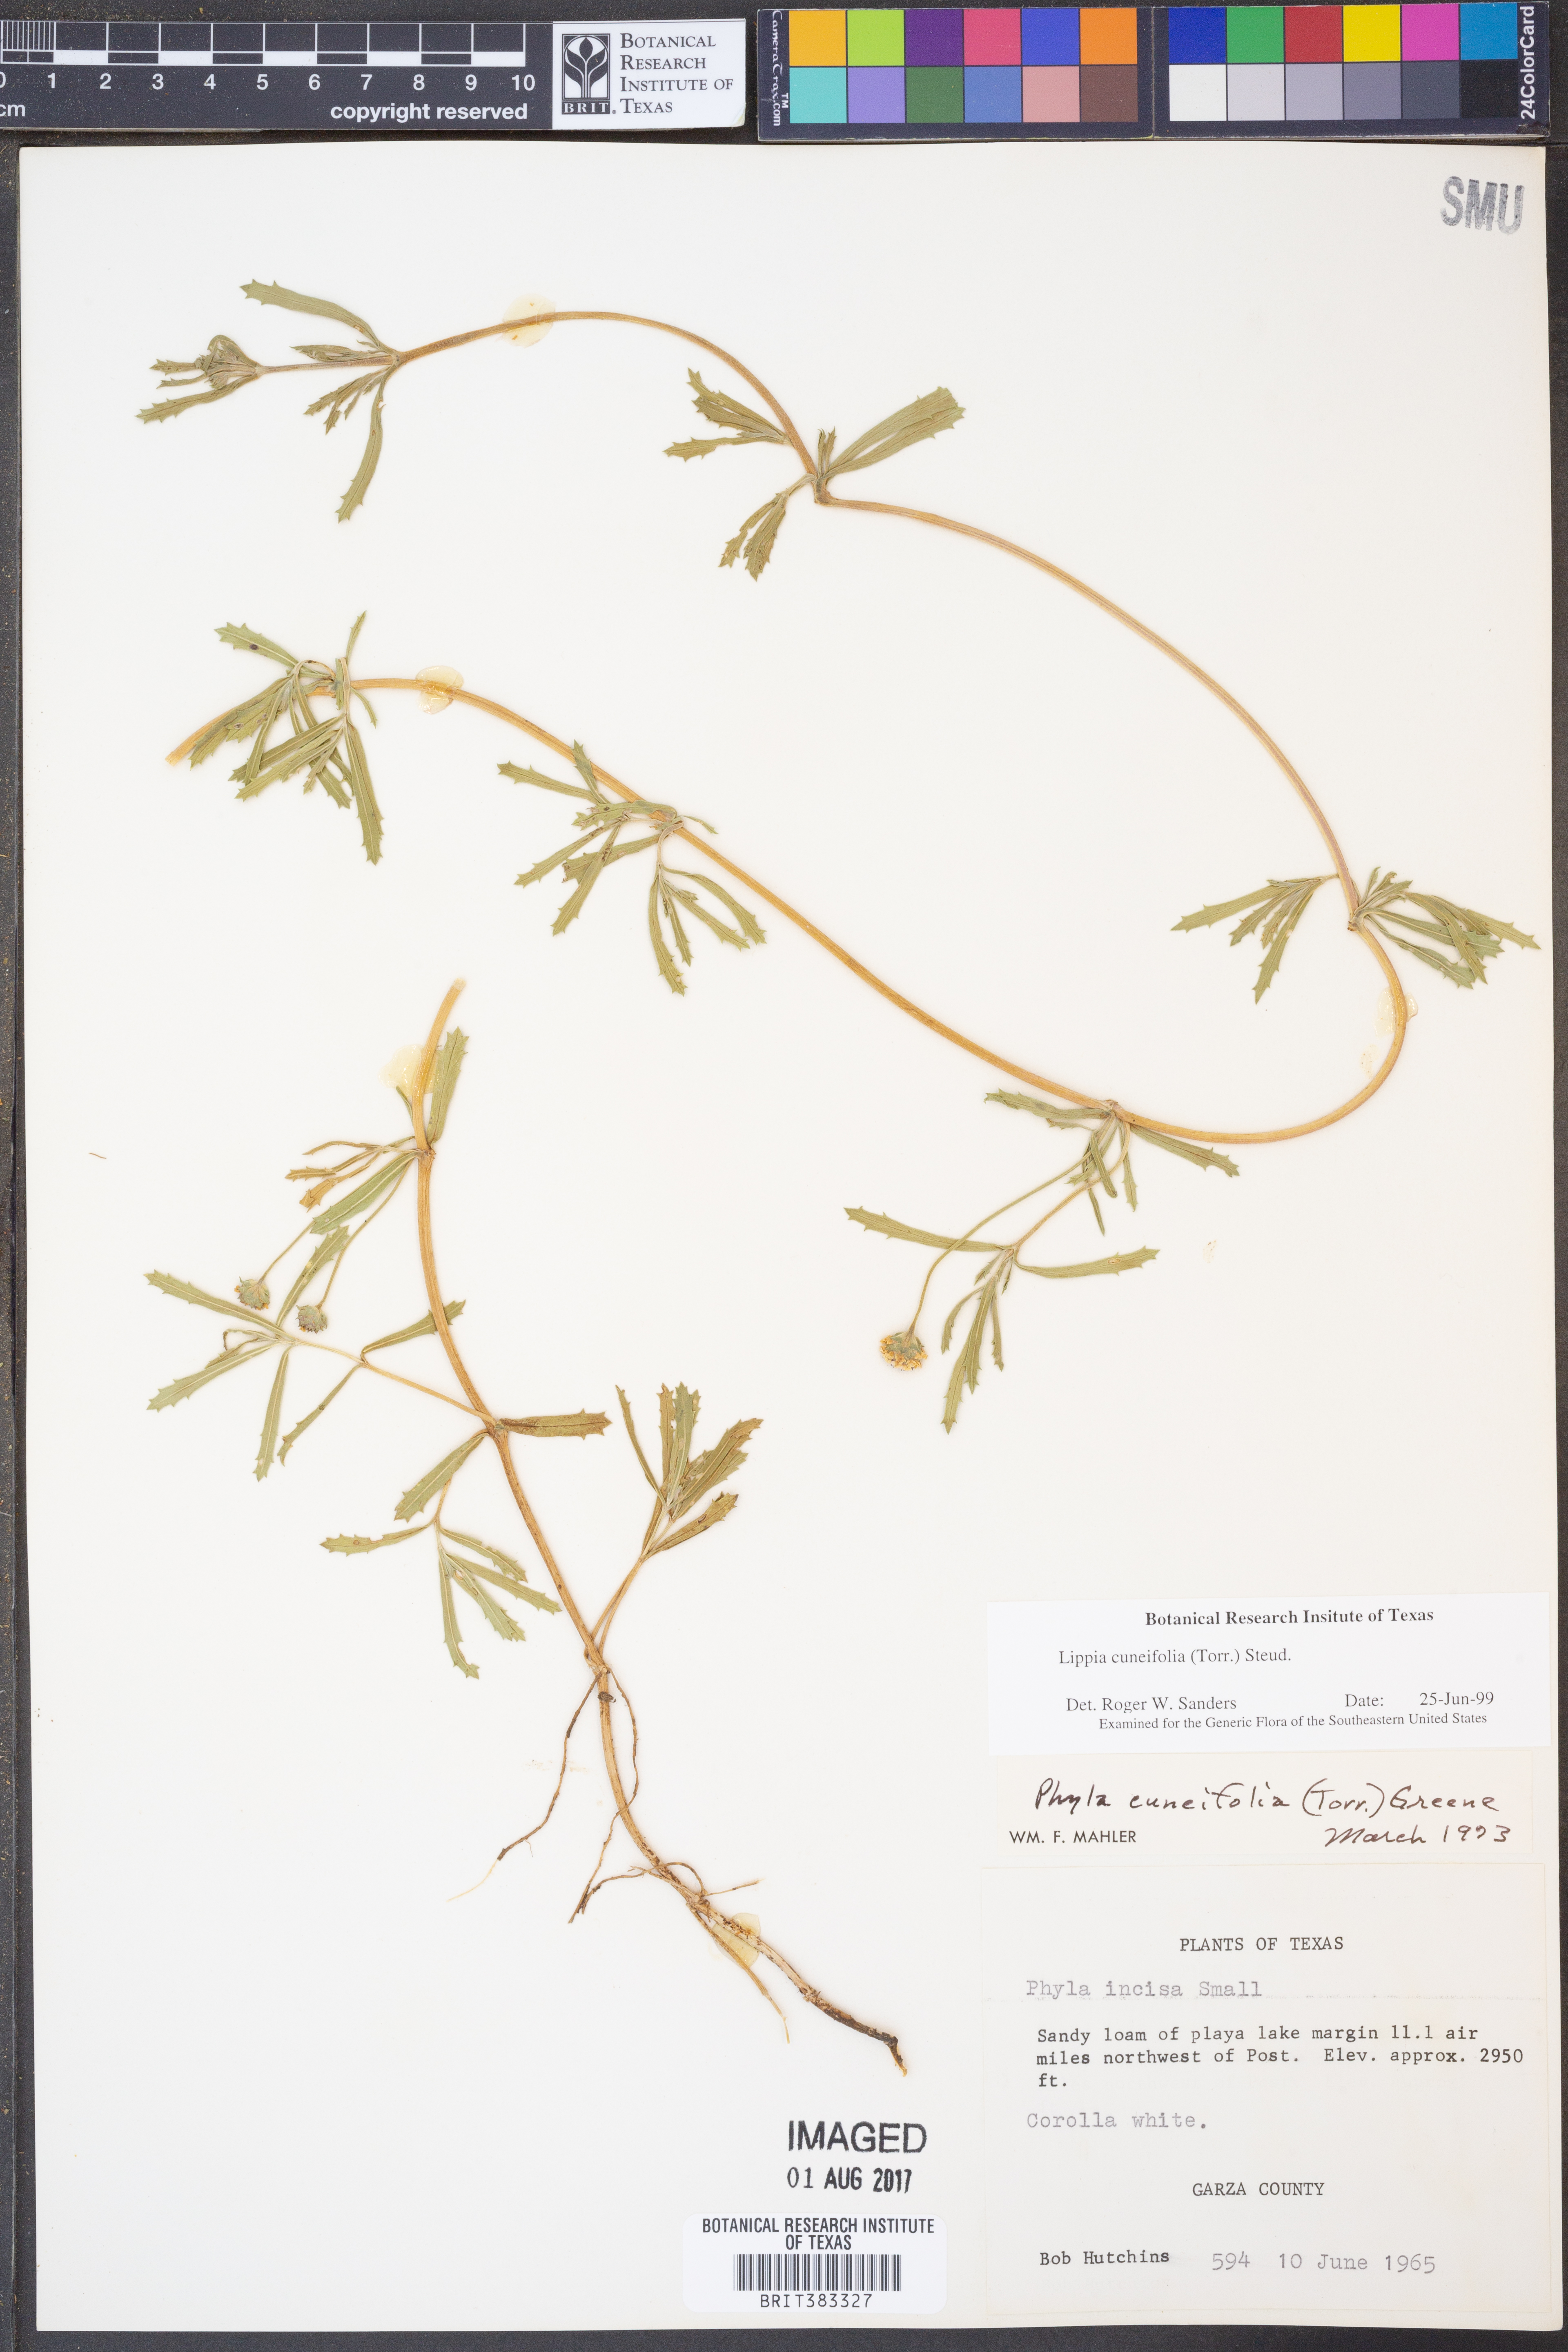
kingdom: Plantae
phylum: Tracheophyta
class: Magnoliopsida
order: Lamiales
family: Verbenaceae
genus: Phyla
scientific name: Phyla cuneifolia
